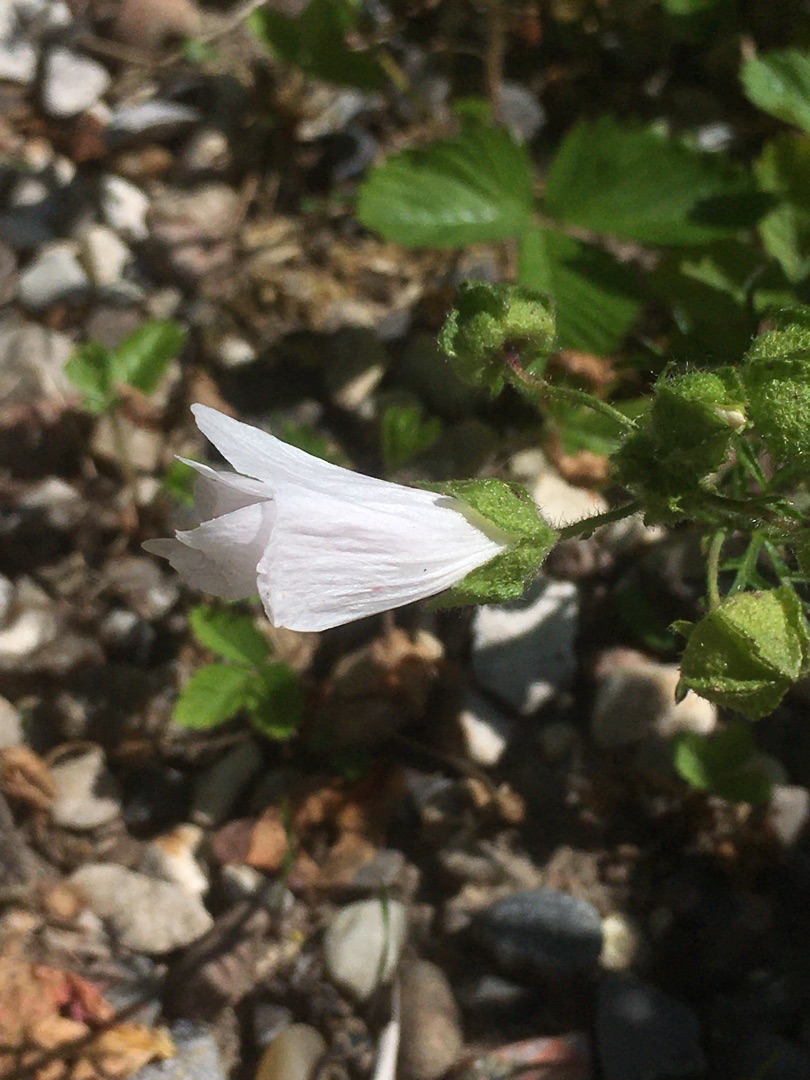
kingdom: Plantae
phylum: Tracheophyta
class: Magnoliopsida
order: Malvales
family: Malvaceae
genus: Malva
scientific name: Malva moschata
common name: Moskus-katost
